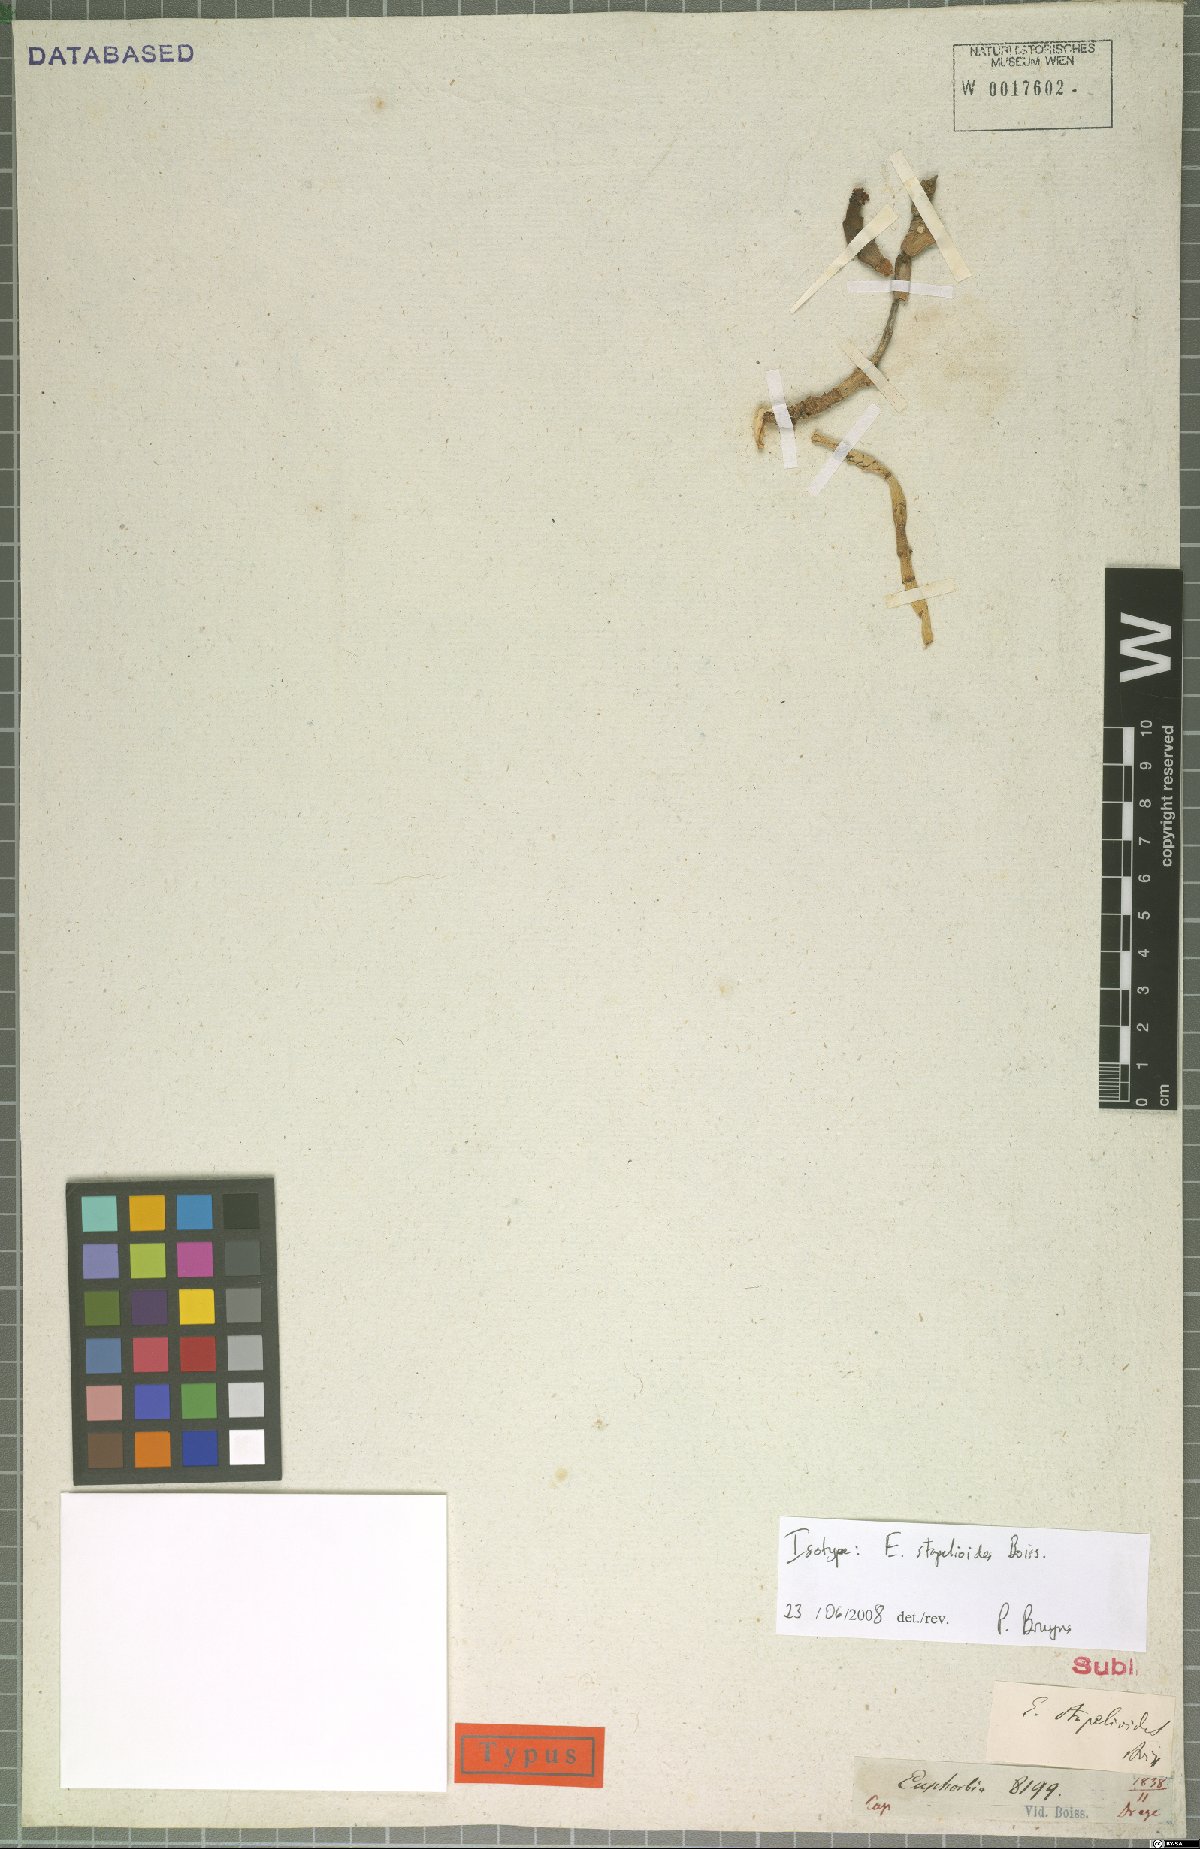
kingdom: Plantae
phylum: Tracheophyta
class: Magnoliopsida
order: Malpighiales
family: Euphorbiaceae
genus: Euphorbia
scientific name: Euphorbia stapelioides
